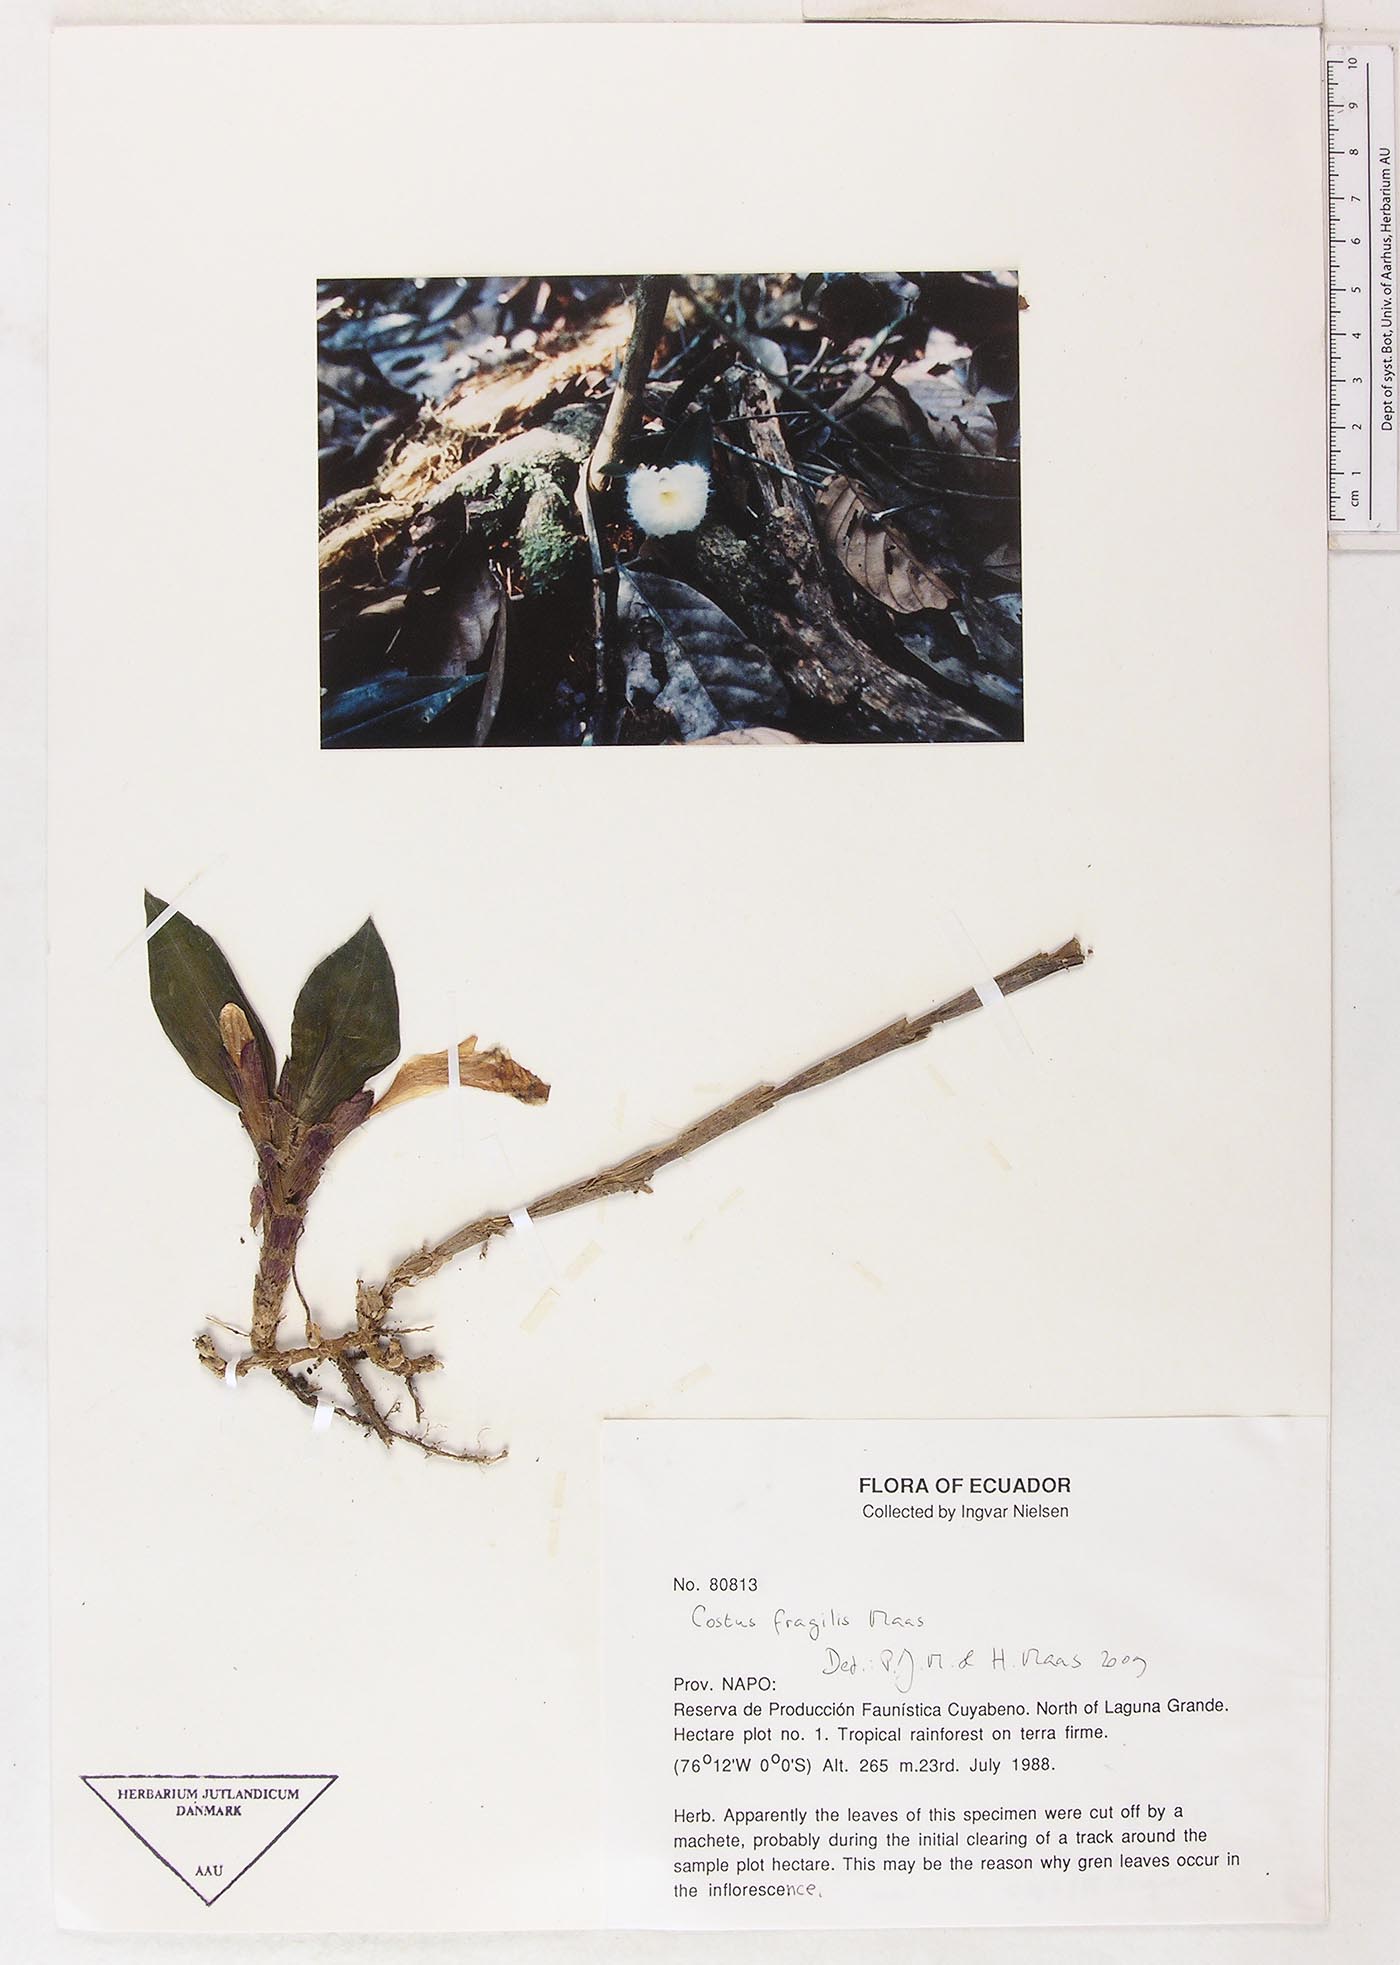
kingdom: Plantae
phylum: Tracheophyta
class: Liliopsida
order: Zingiberales
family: Costaceae
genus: Chamaecostus
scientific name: Chamaecostus fragilis
